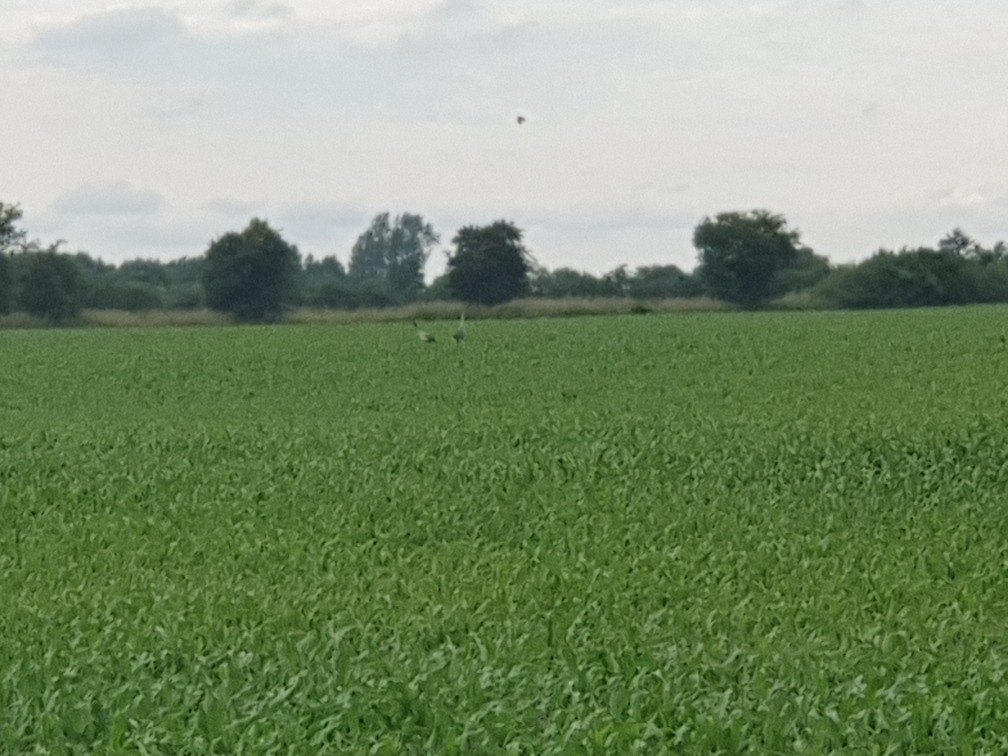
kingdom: Animalia
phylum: Chordata
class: Aves
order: Gruiformes
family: Gruidae
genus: Grus
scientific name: Grus grus
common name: Trane
